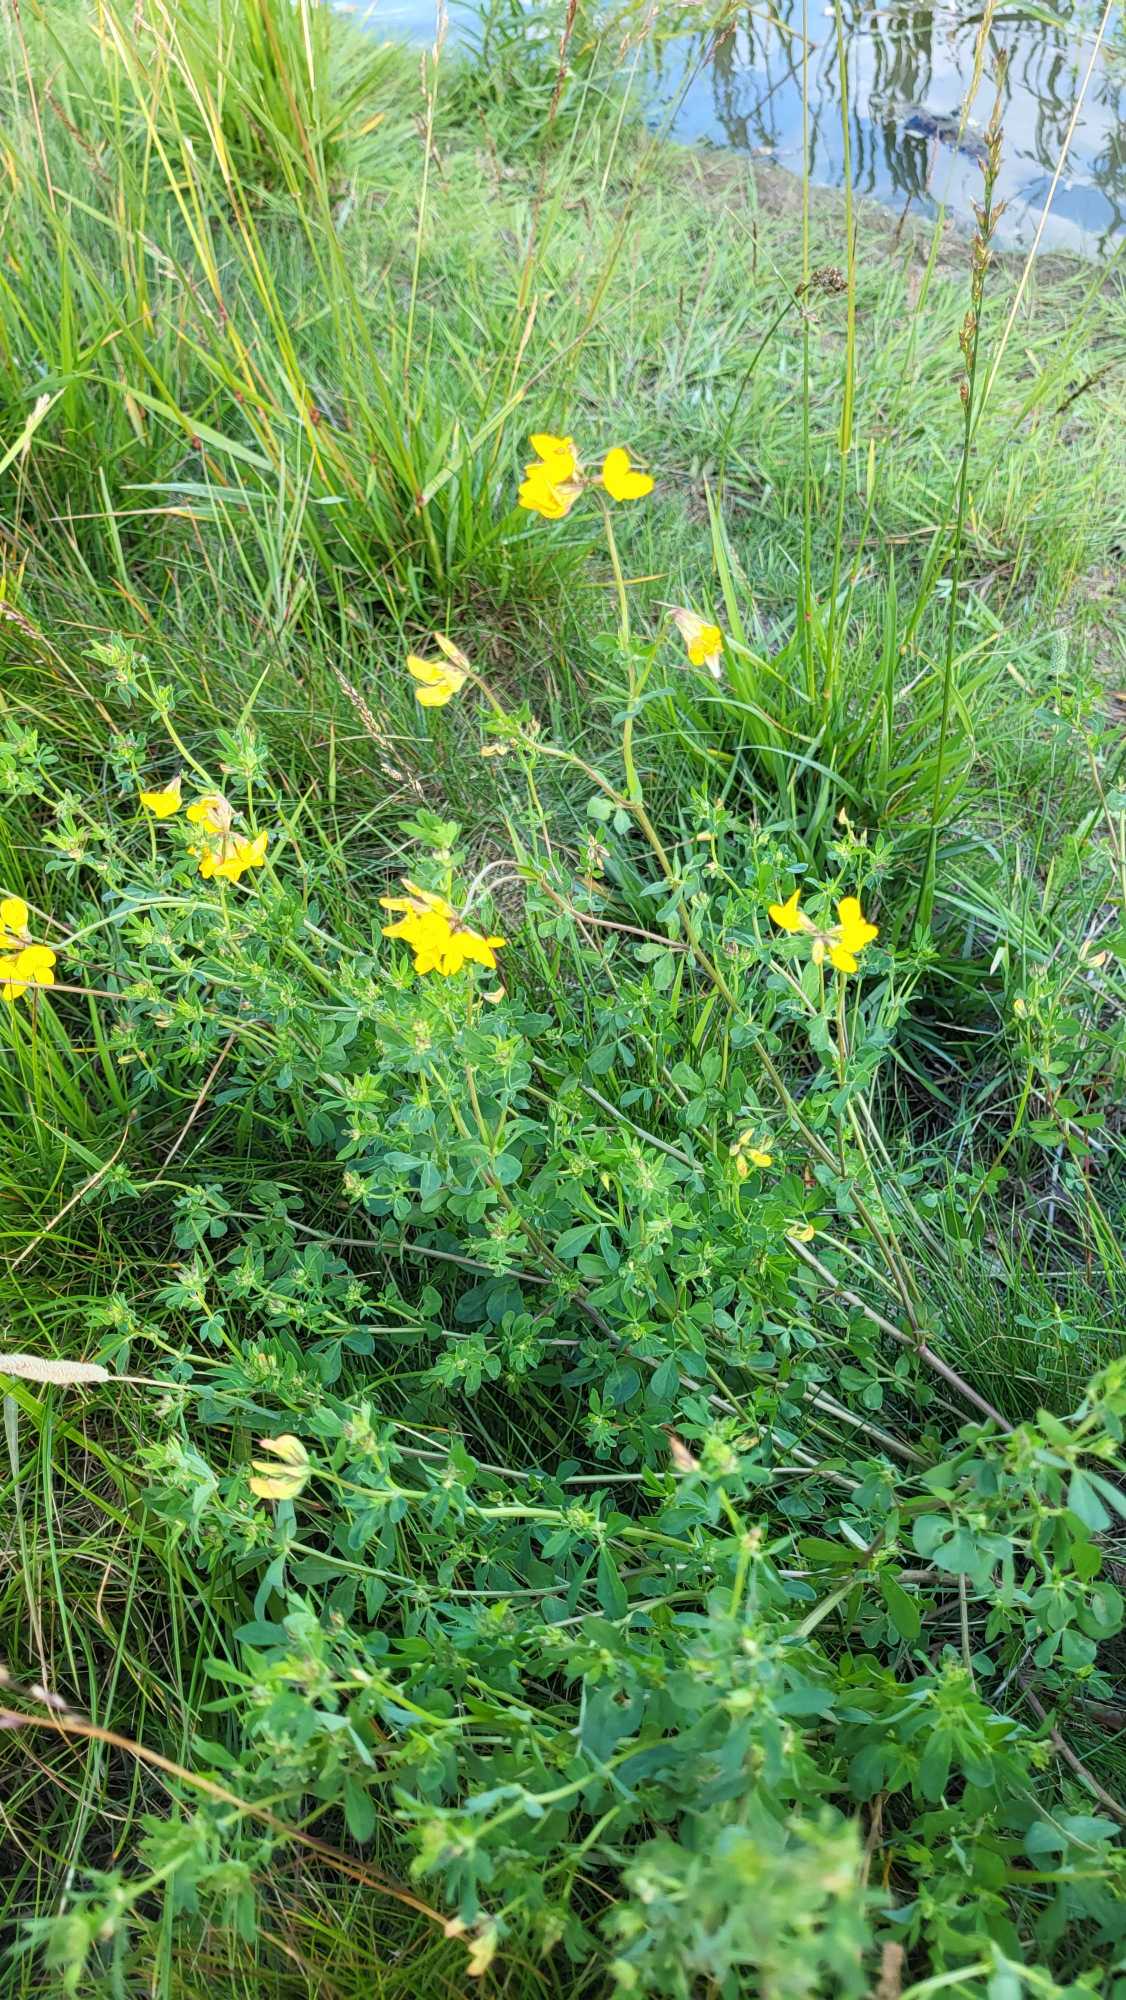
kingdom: Plantae
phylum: Tracheophyta
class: Magnoliopsida
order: Fabales
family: Fabaceae
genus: Lotus
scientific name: Lotus corniculatus
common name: Almindelig kællingetand
